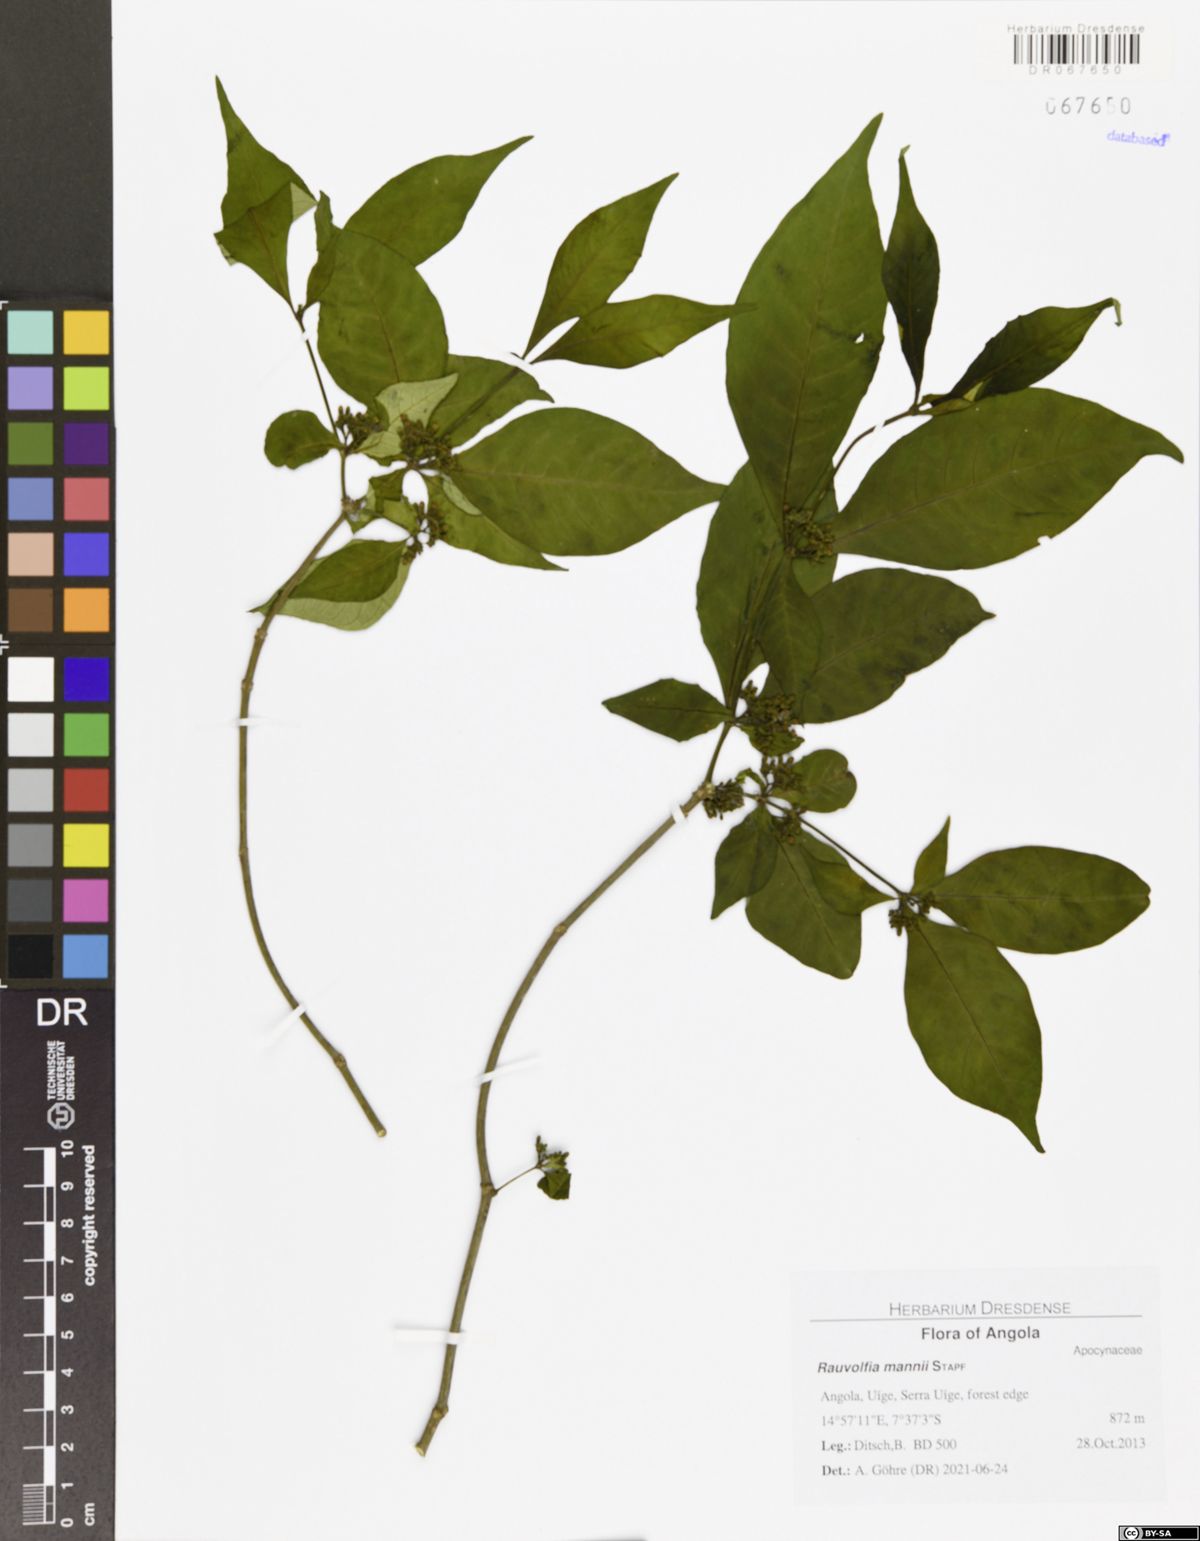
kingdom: Plantae
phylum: Tracheophyta
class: Magnoliopsida
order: Gentianales
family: Apocynaceae
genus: Rauvolfia
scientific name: Rauvolfia mannii
